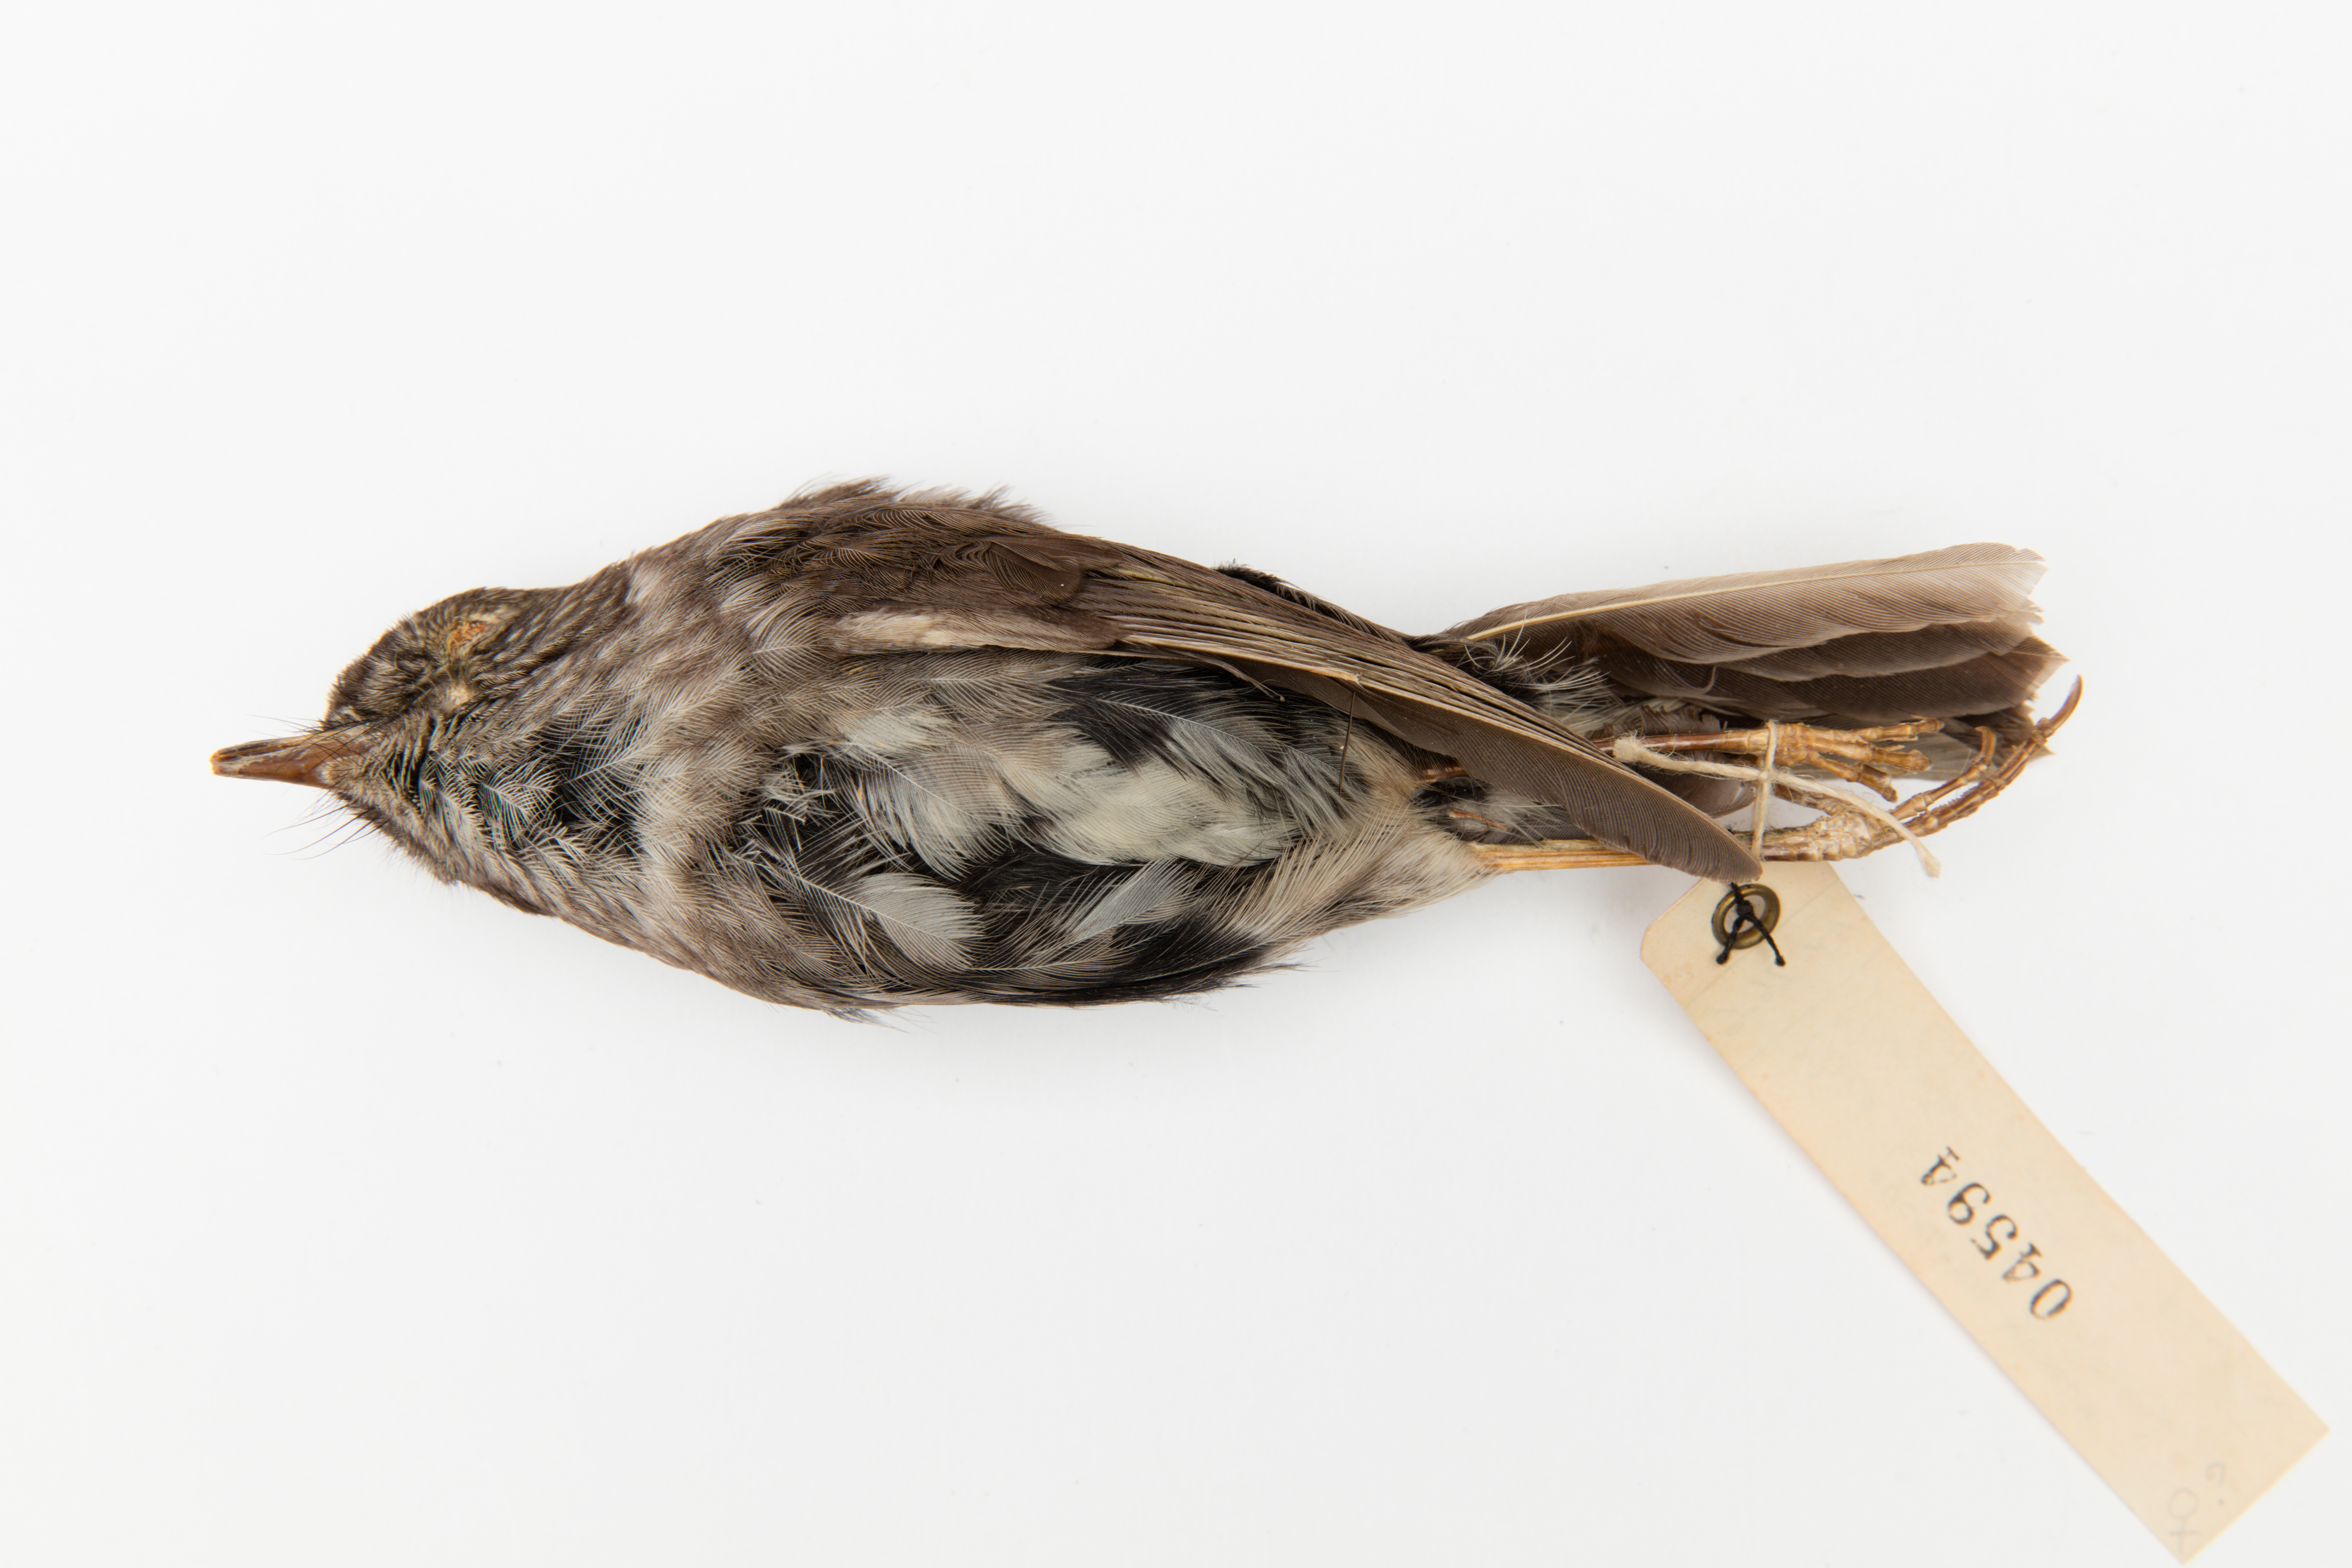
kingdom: Animalia
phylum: Chordata
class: Aves
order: Passeriformes
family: Petroicidae
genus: Petroica
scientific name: Petroica australis
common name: New zealand robin
